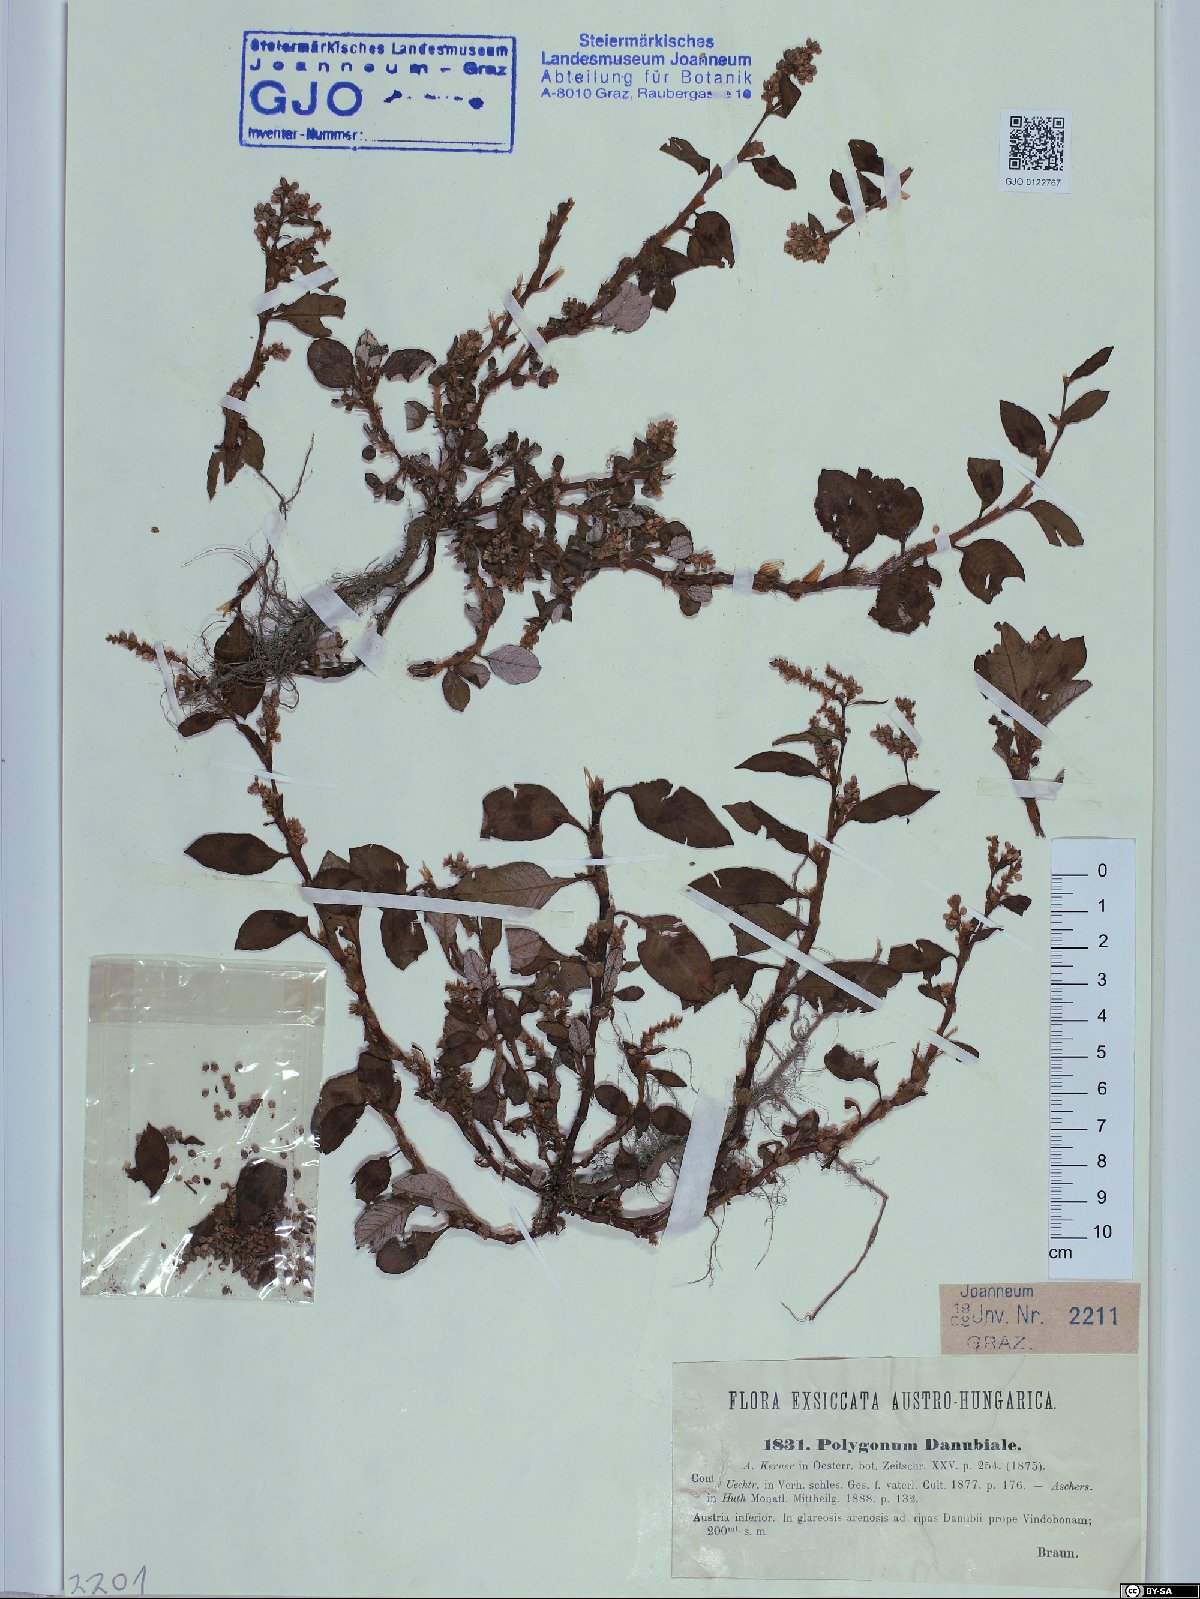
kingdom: Plantae
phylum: Tracheophyta
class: Magnoliopsida
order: Caryophyllales
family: Polygonaceae
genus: Persicaria
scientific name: Persicaria lapathifolia
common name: Curlytop knotweed
